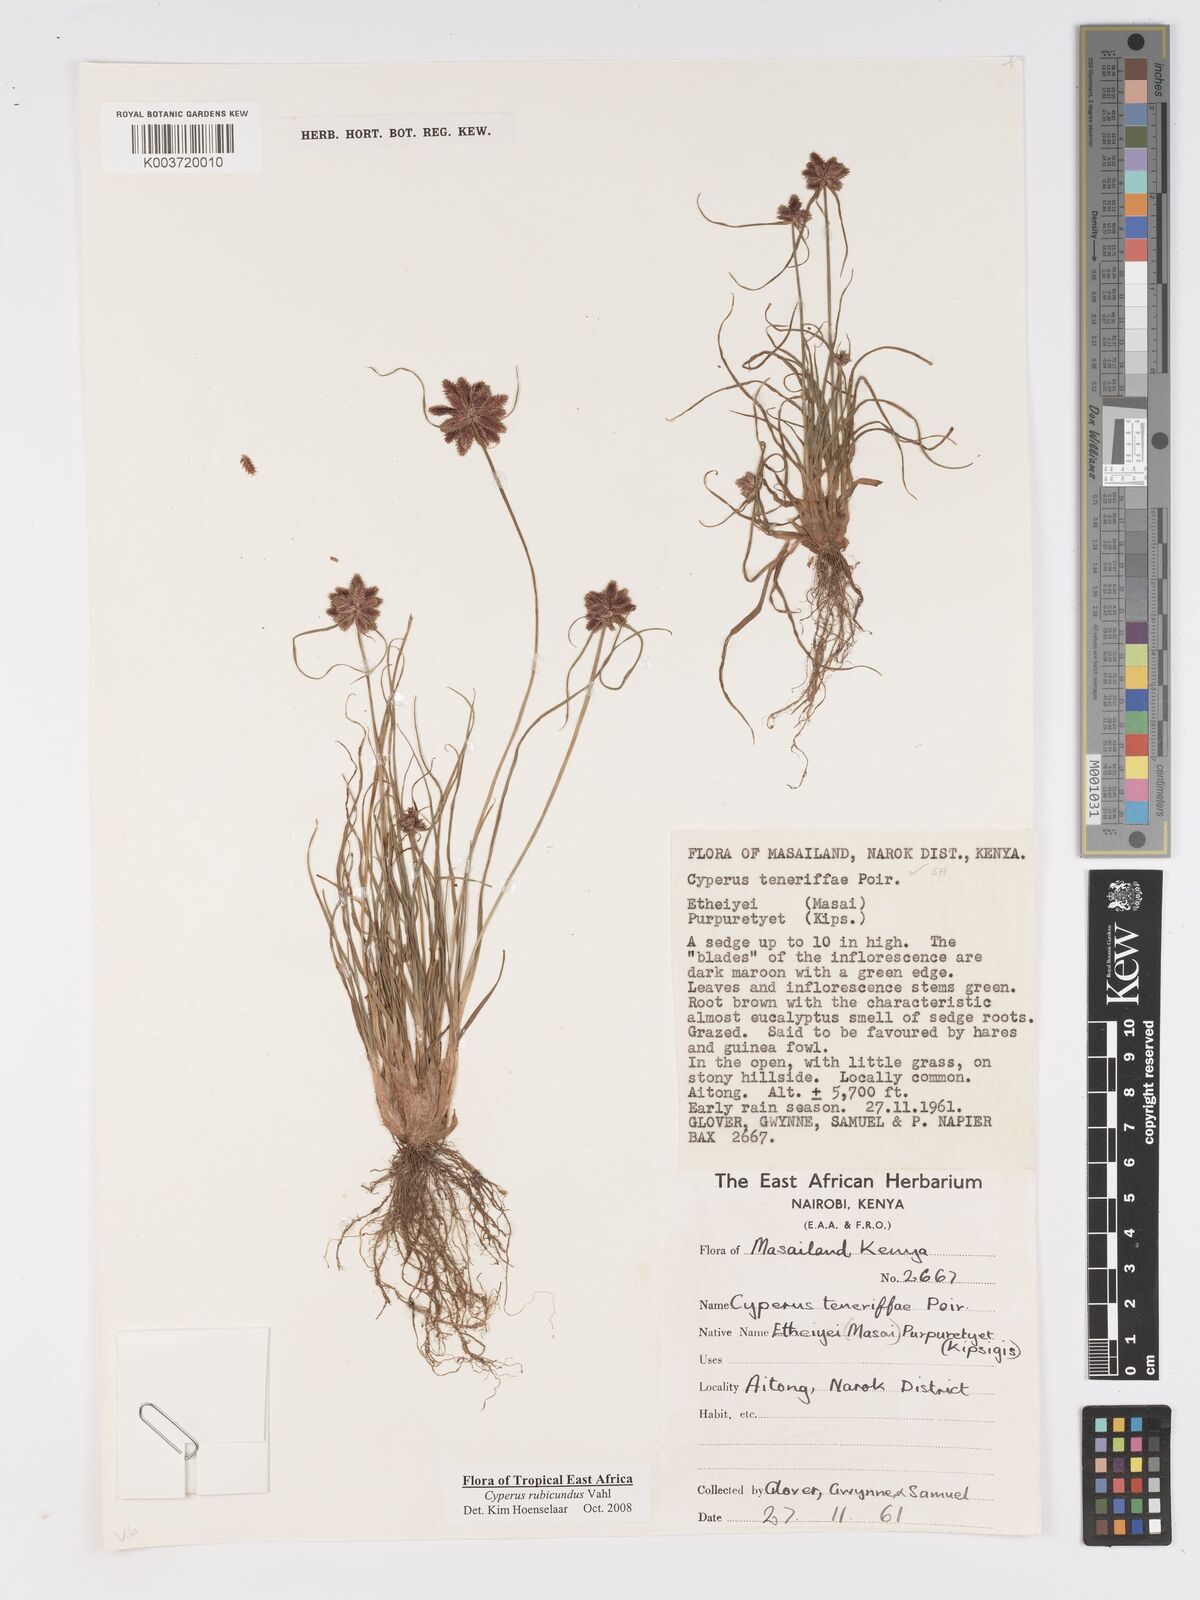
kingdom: Plantae
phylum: Tracheophyta
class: Liliopsida
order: Poales
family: Cyperaceae
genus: Cyperus
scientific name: Cyperus rubicundus
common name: Coco-grass
